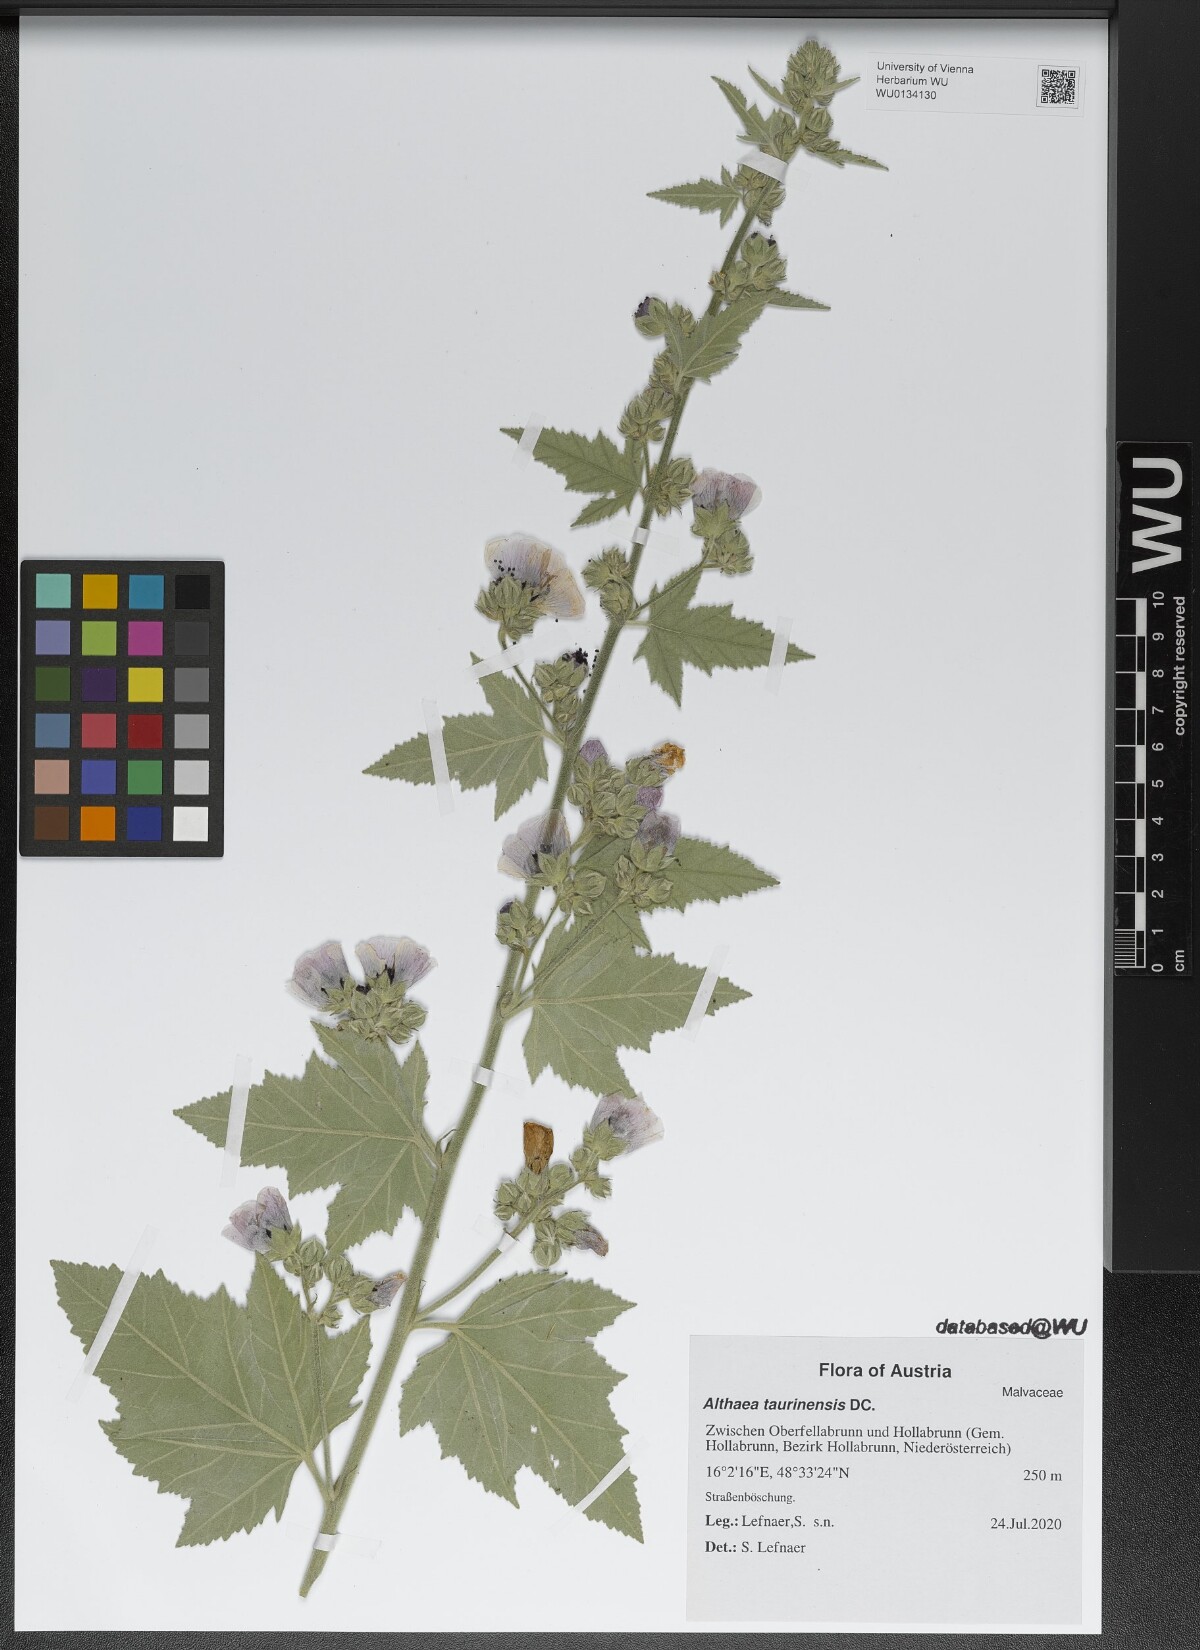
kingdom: Plantae
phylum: Tracheophyta
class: Magnoliopsida
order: Malvales
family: Malvaceae
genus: Althaea
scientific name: Althaea taurinensis
